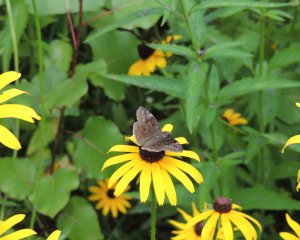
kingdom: Animalia
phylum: Arthropoda
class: Insecta
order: Lepidoptera
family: Hesperiidae
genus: Gesta
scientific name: Gesta
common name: Wild Indigo Duskywing
